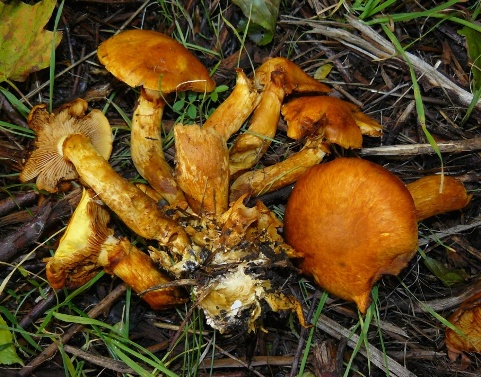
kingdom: Fungi
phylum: Basidiomycota
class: Agaricomycetes
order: Agaricales
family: Hymenogastraceae
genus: Gymnopilus
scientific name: Gymnopilus spectabilis
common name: fibret flammehat
